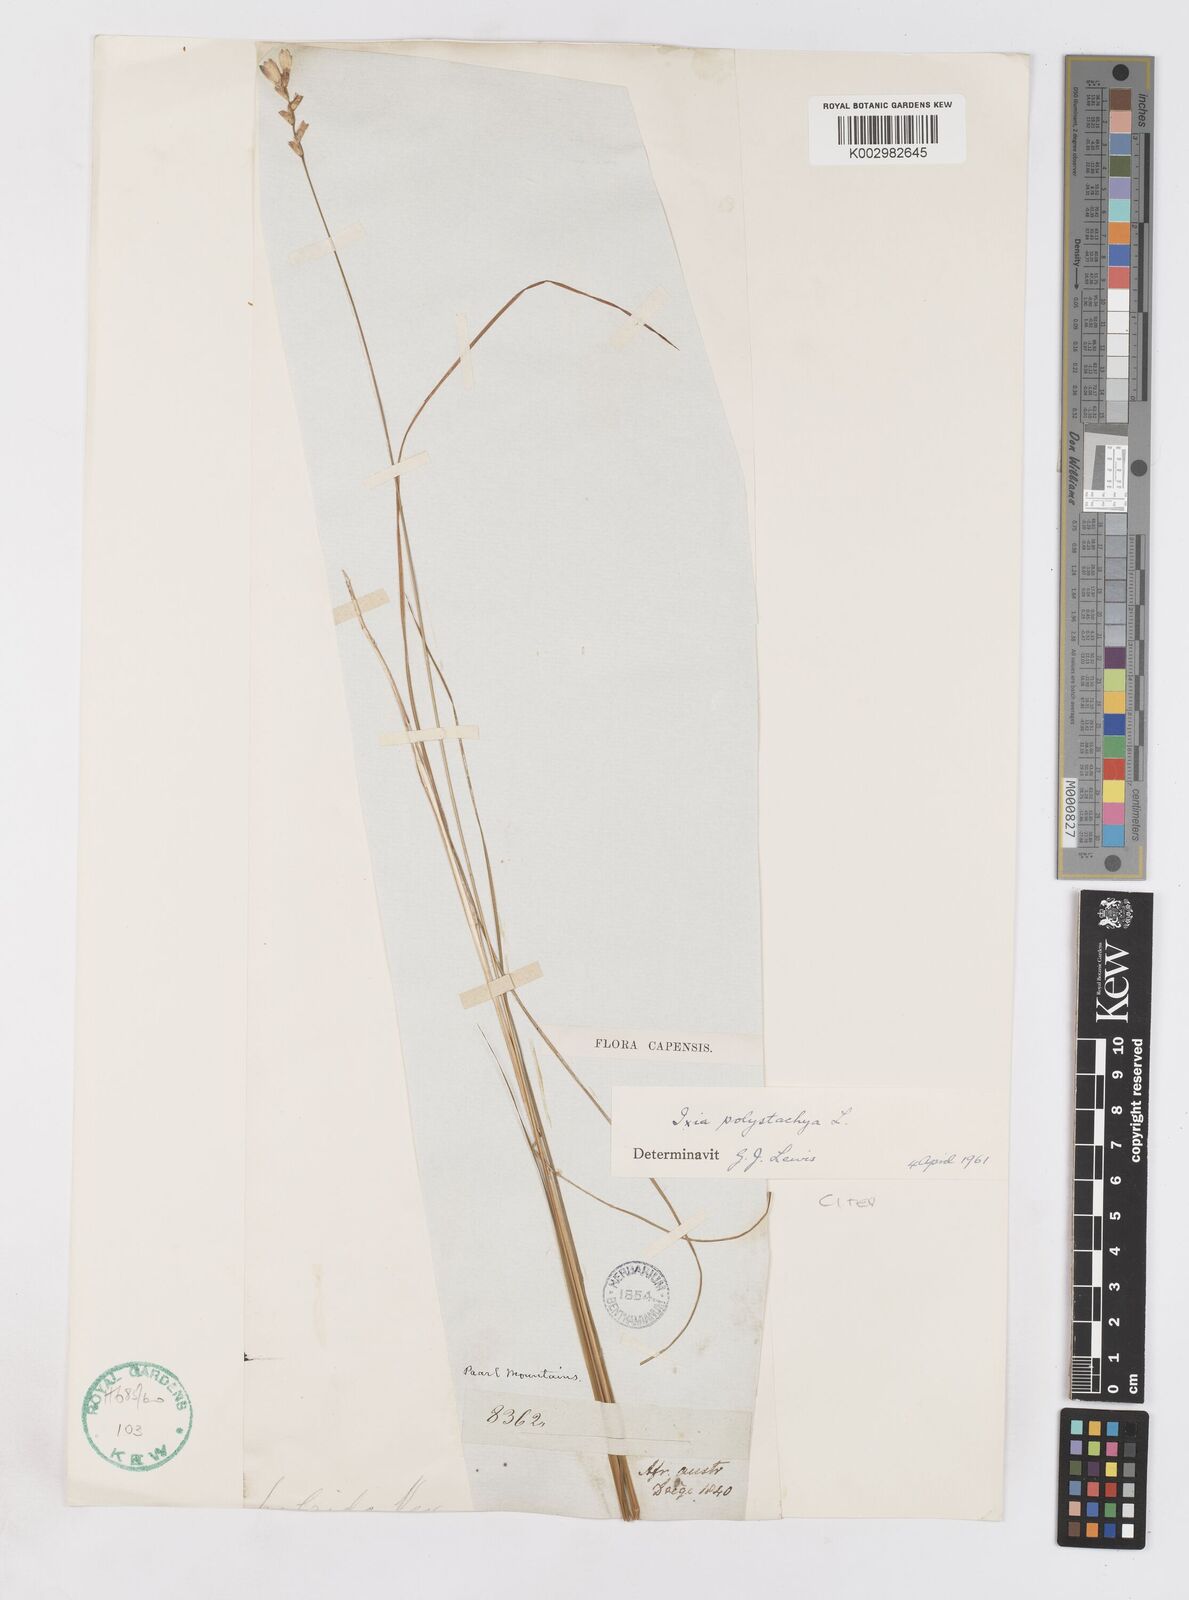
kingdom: Plantae
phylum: Tracheophyta
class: Liliopsida
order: Asparagales
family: Iridaceae
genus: Ixia
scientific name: Ixia polystachya
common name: White-and-yellow-flower cornlily
